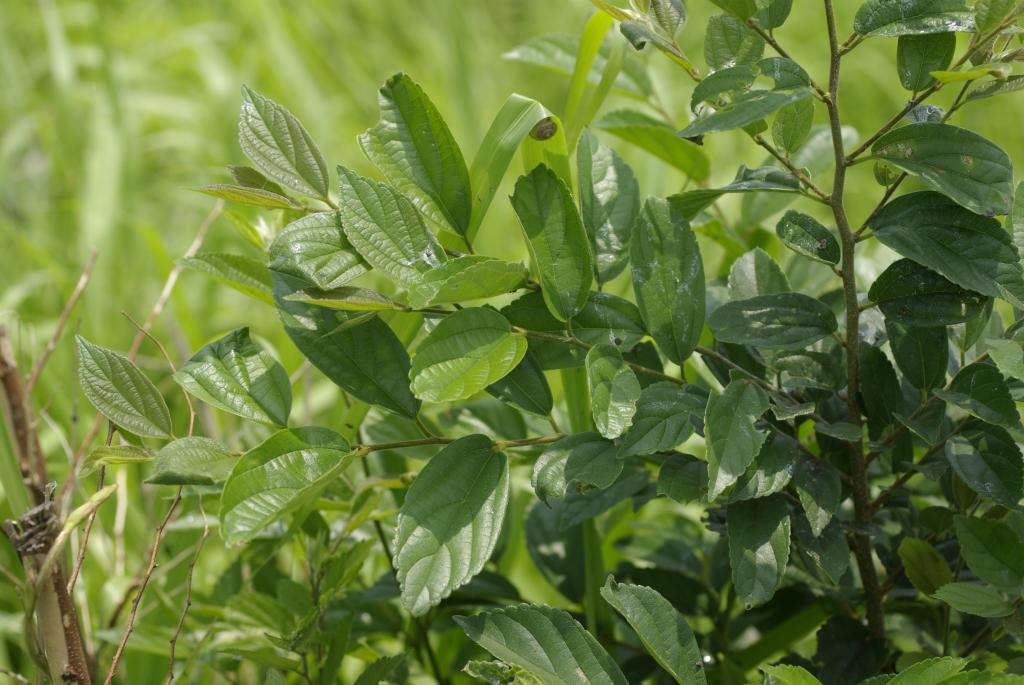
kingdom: Plantae
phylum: Tracheophyta
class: Magnoliopsida
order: Rosales
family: Cannabaceae
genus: Celtis
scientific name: Celtis sinensis
